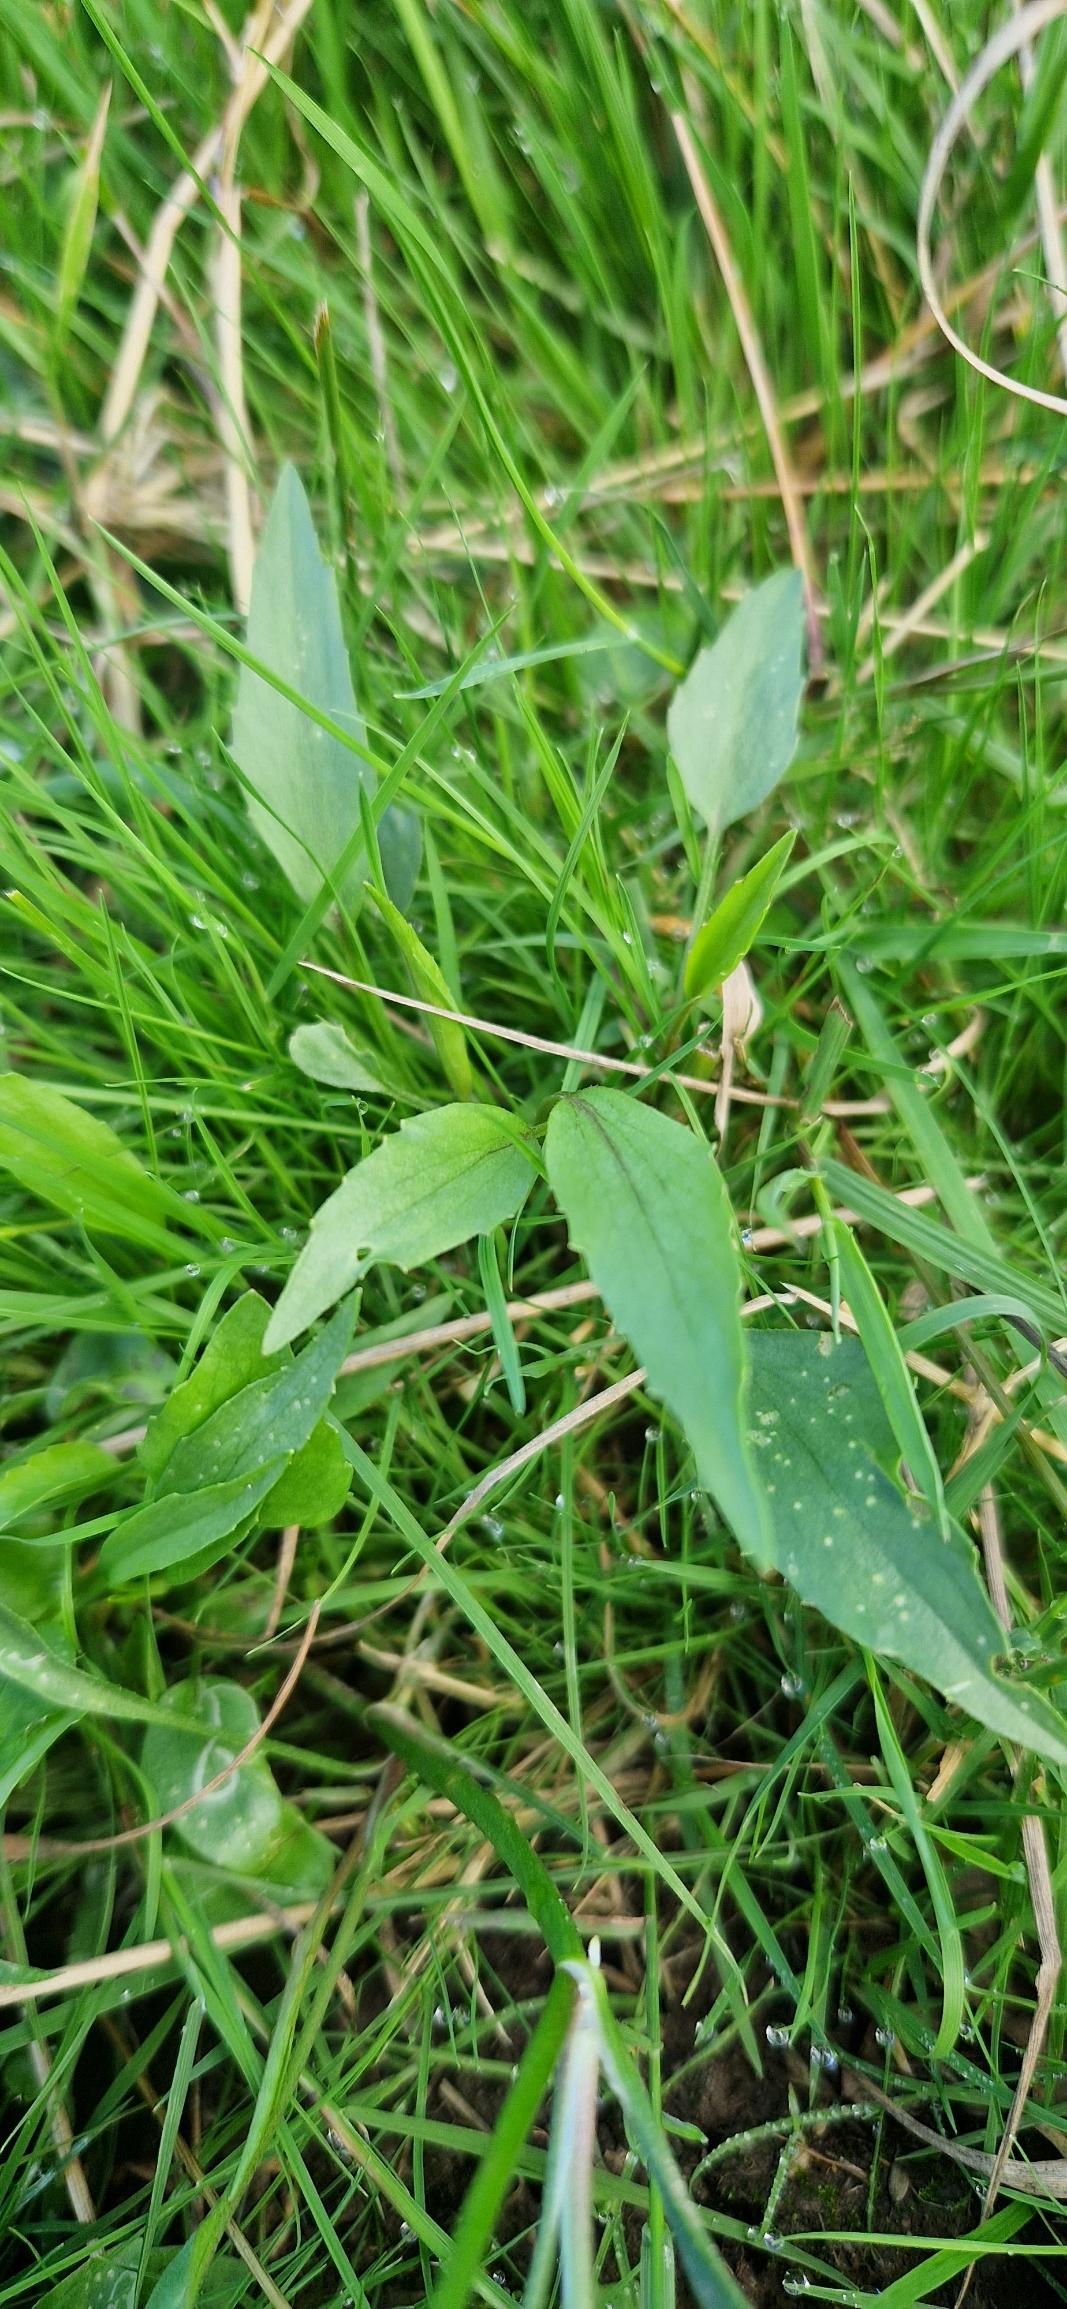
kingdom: Plantae
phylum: Tracheophyta
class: Magnoliopsida
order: Ranunculales
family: Ranunculaceae
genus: Ranunculus
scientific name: Ranunculus flammula
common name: Kær-ranunkel
